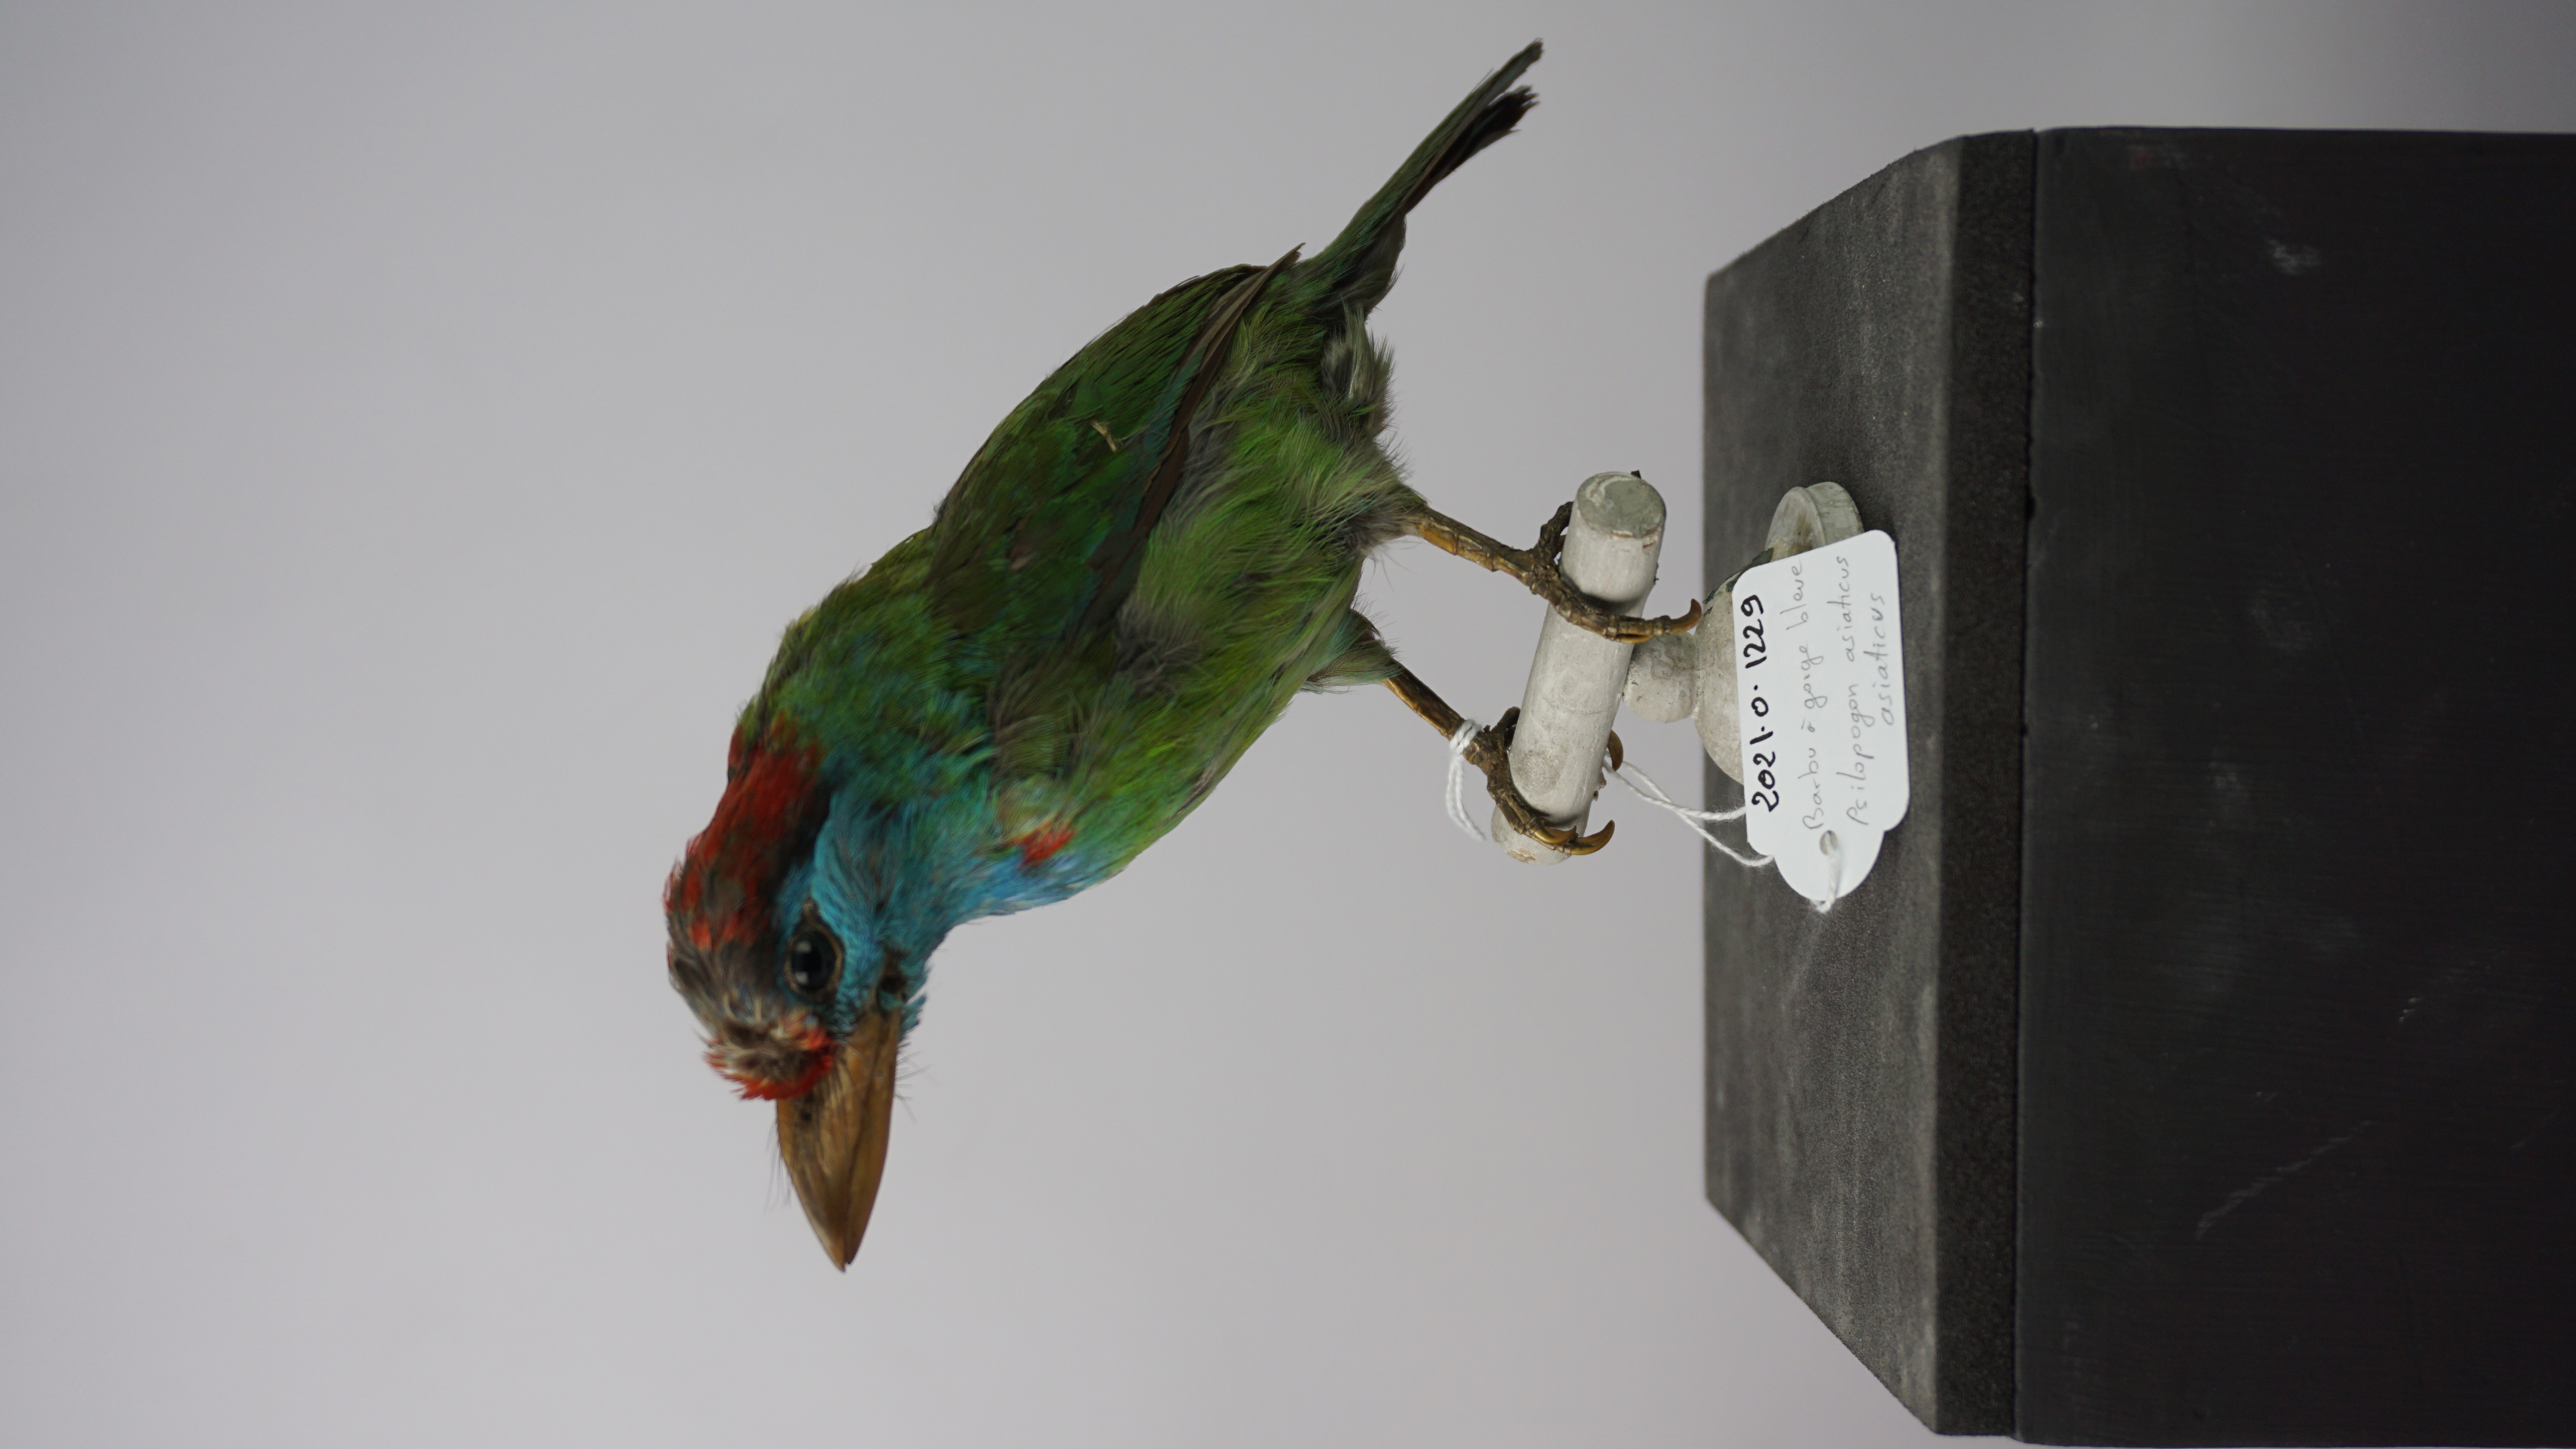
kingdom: Animalia
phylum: Chordata
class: Aves
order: Piciformes
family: Megalaimidae
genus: Psilopogon
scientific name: Psilopogon asiaticus
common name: Blue-throated barbet
